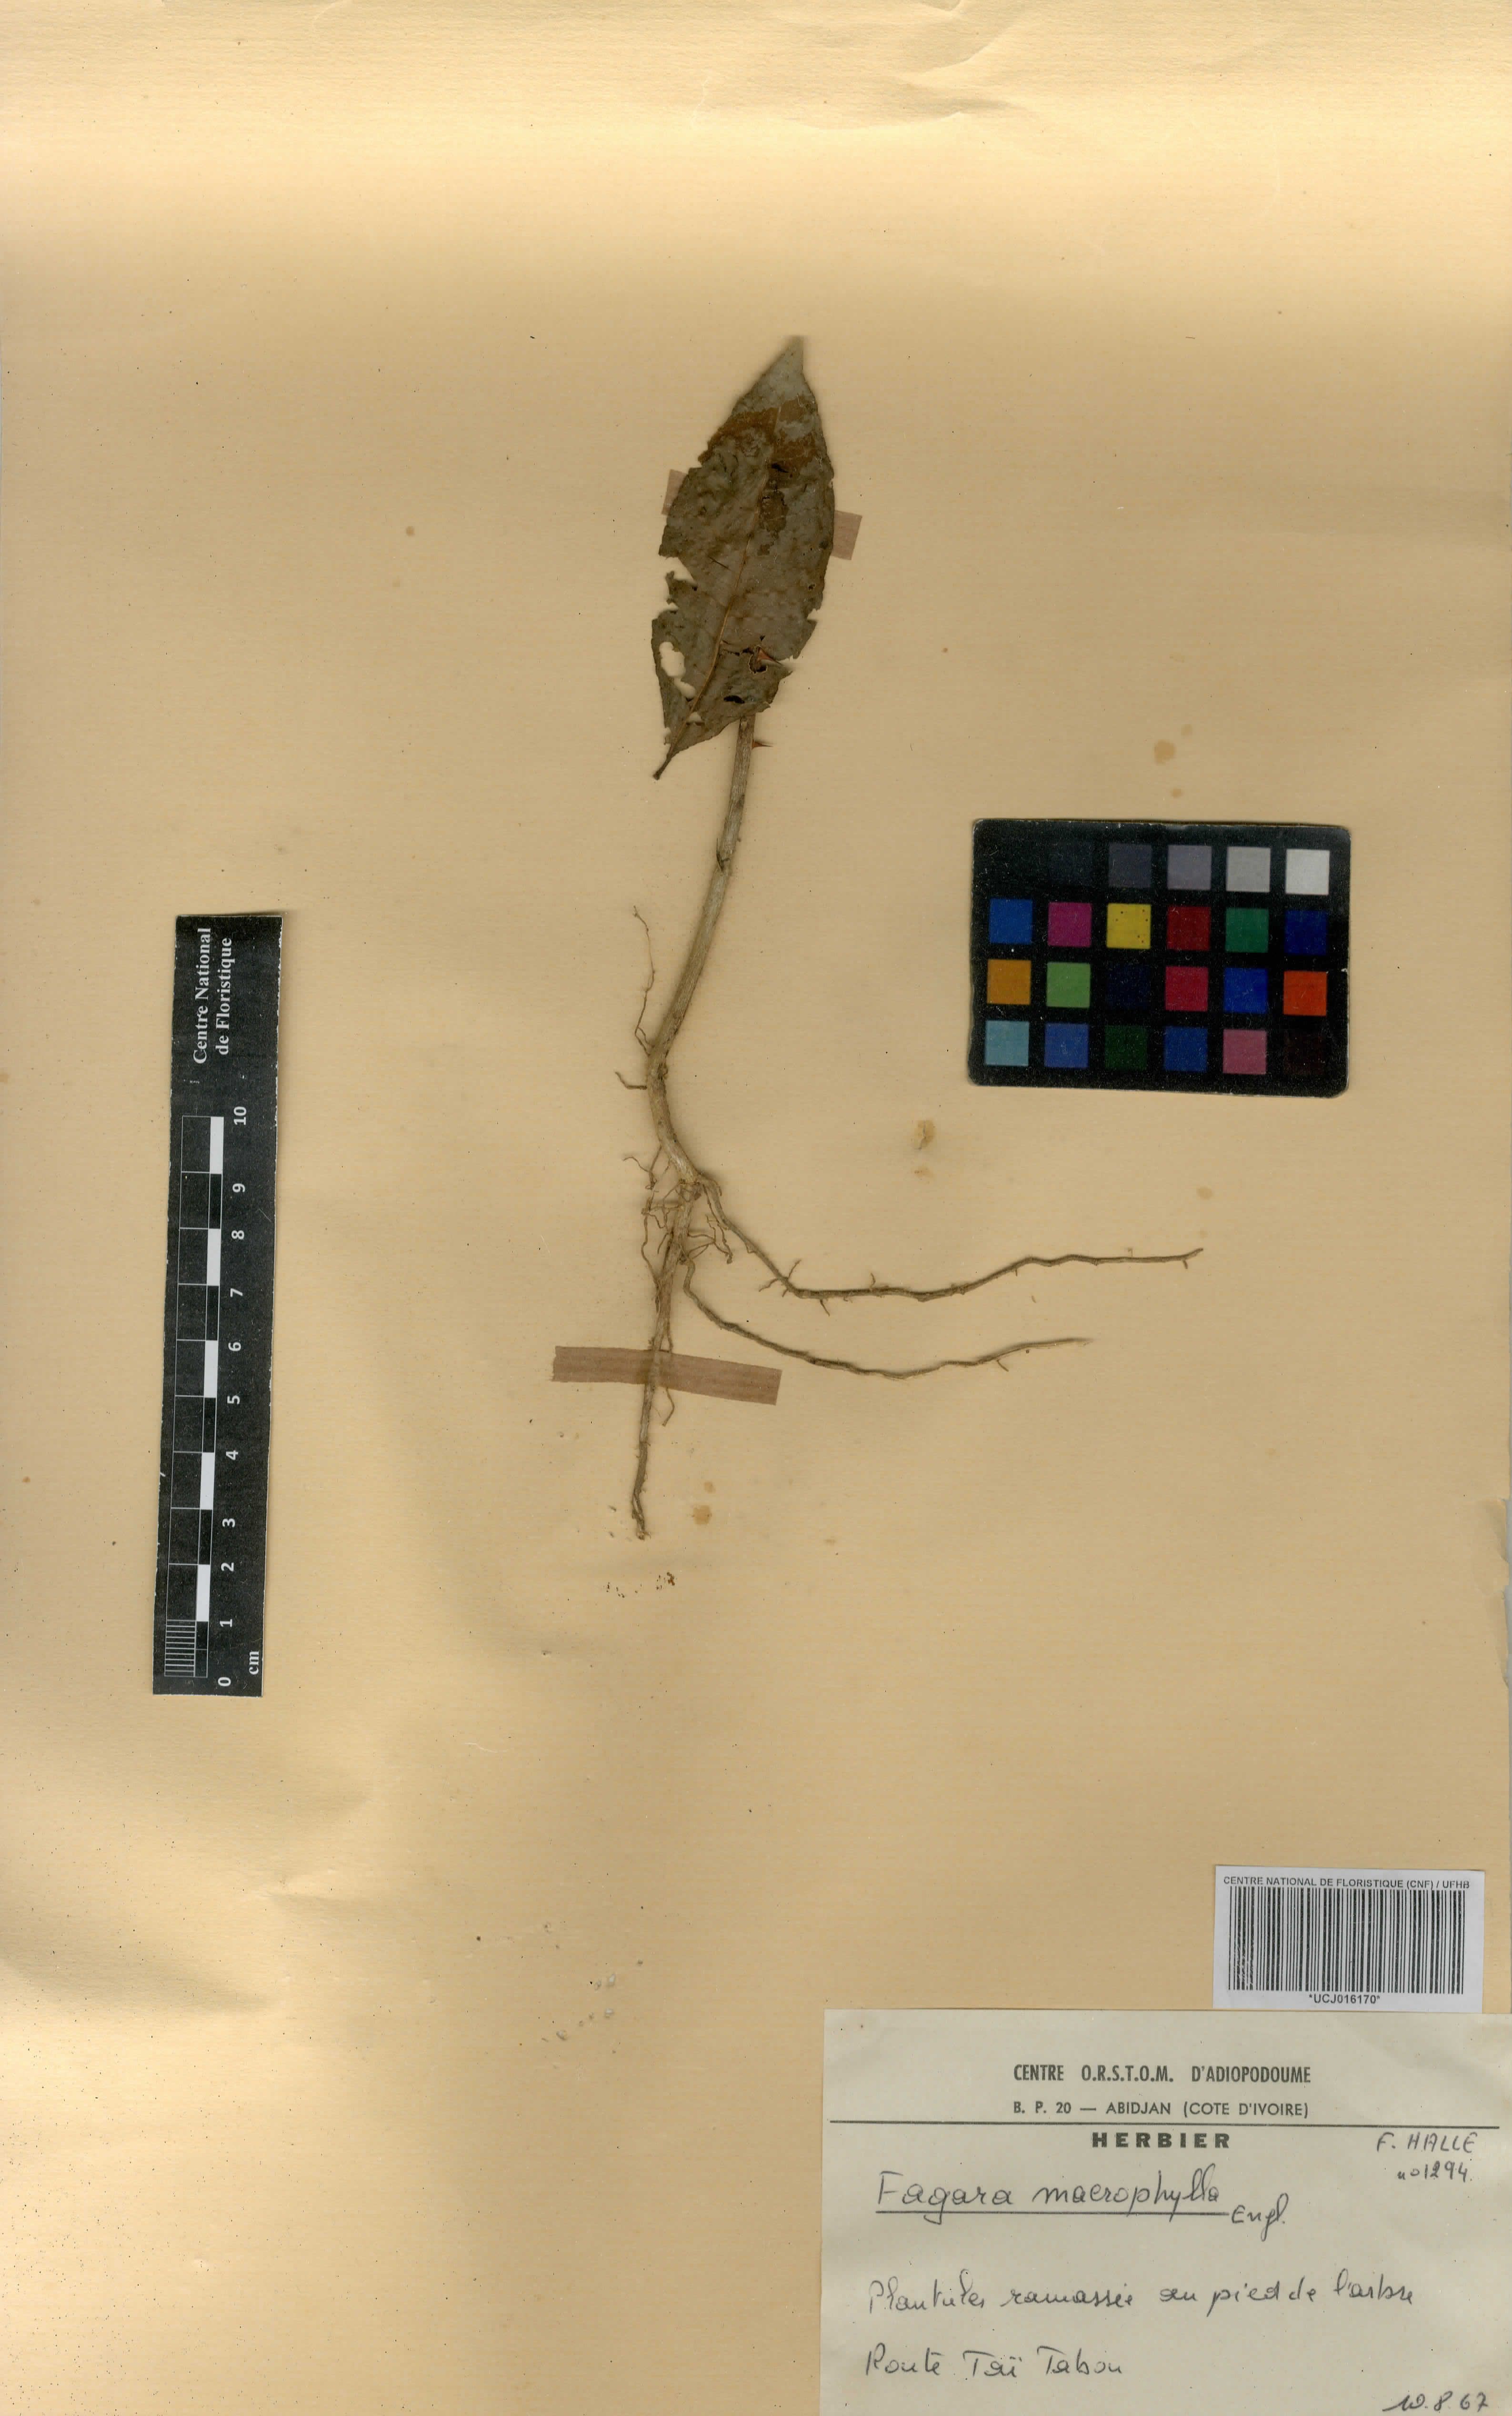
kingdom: Plantae
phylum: Tracheophyta
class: Magnoliopsida
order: Sapindales
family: Rutaceae
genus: Zanthoxylum
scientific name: Zanthoxylum gilletii
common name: African satinwood
